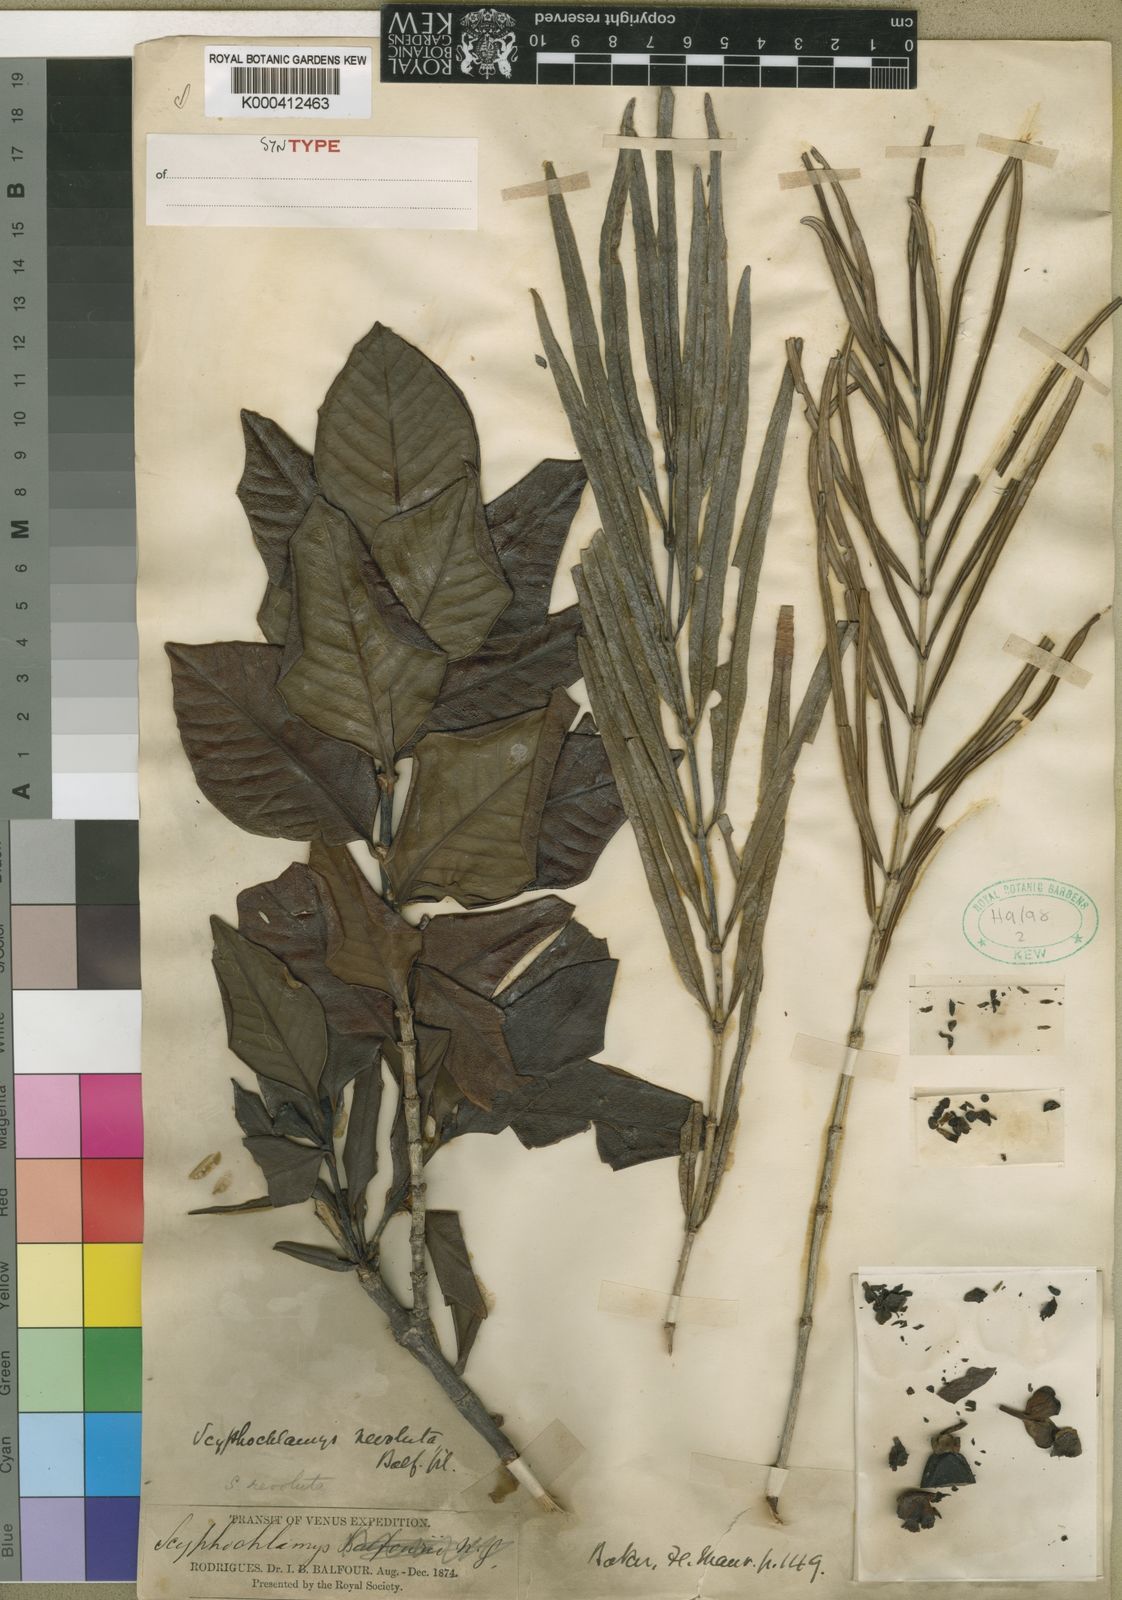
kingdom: Plantae
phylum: Tracheophyta
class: Magnoliopsida
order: Gentianales
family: Rubiaceae
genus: Pyrostria
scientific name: Pyrostria revoluta
